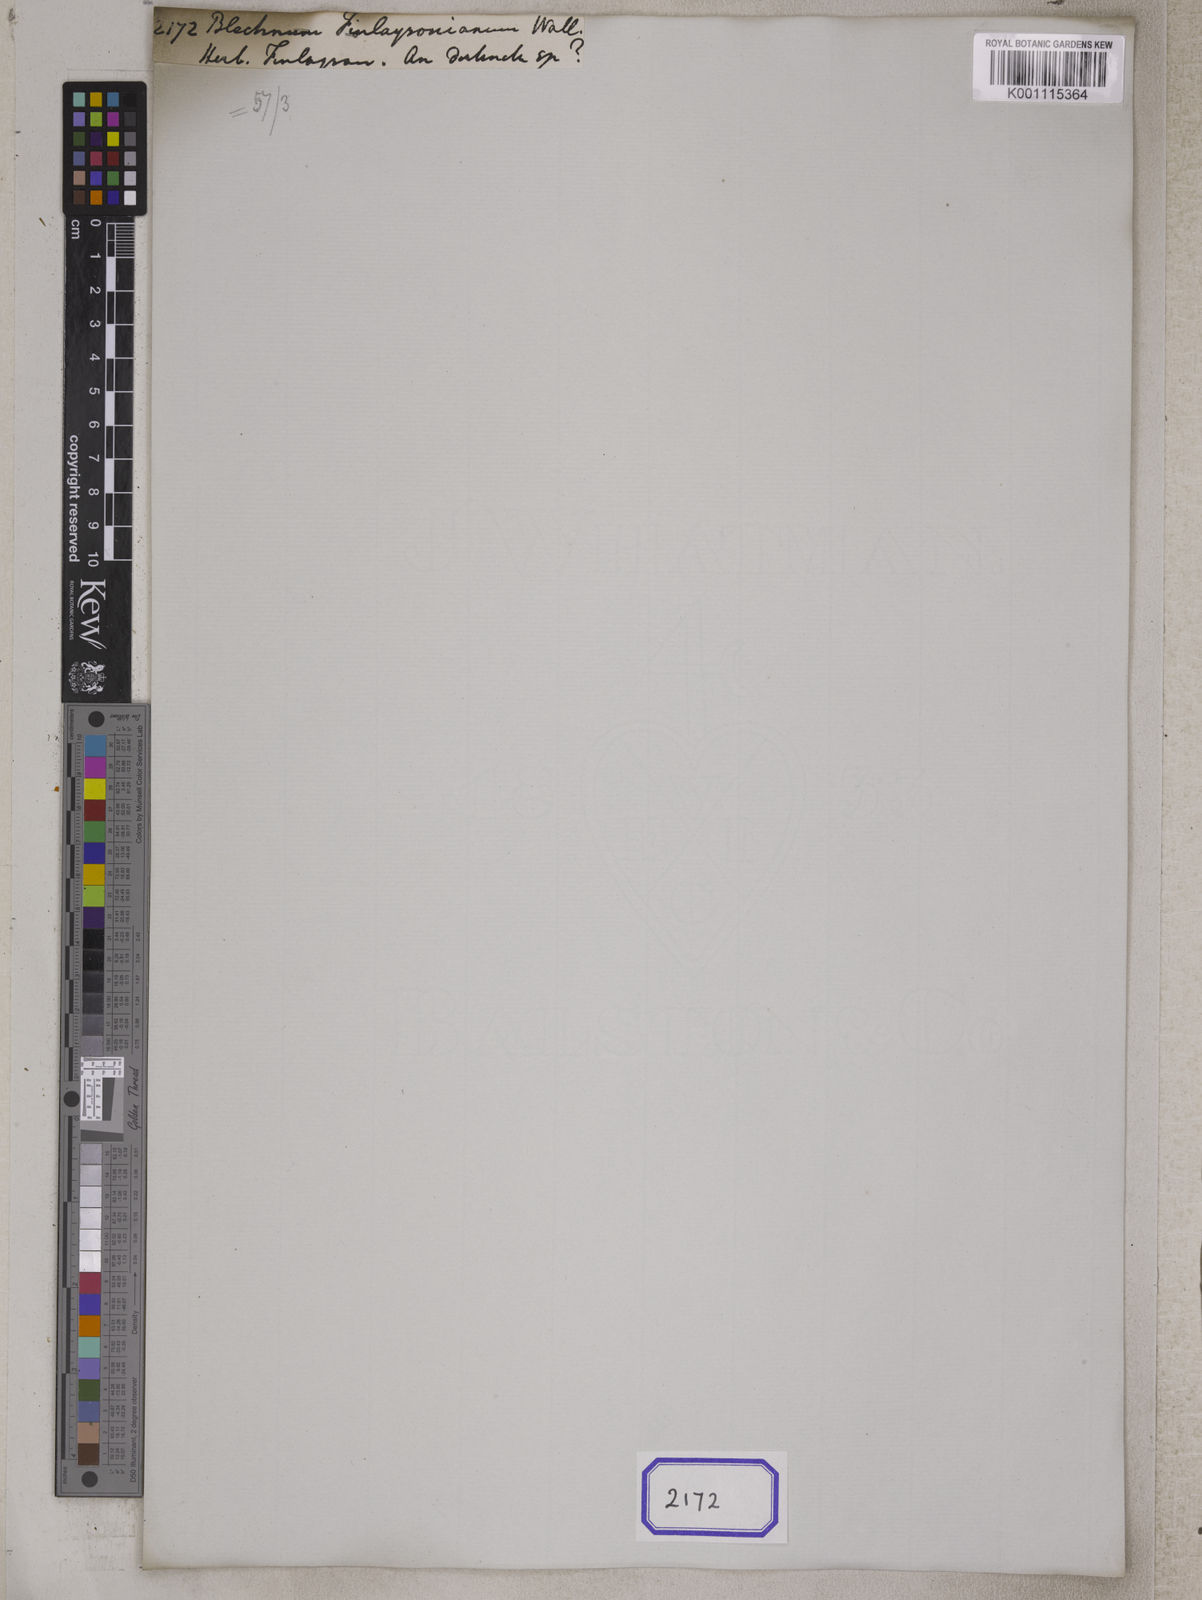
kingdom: Plantae
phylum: Tracheophyta
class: Polypodiopsida
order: Polypodiales
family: Blechnaceae
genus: Blechnum
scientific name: Blechnum
